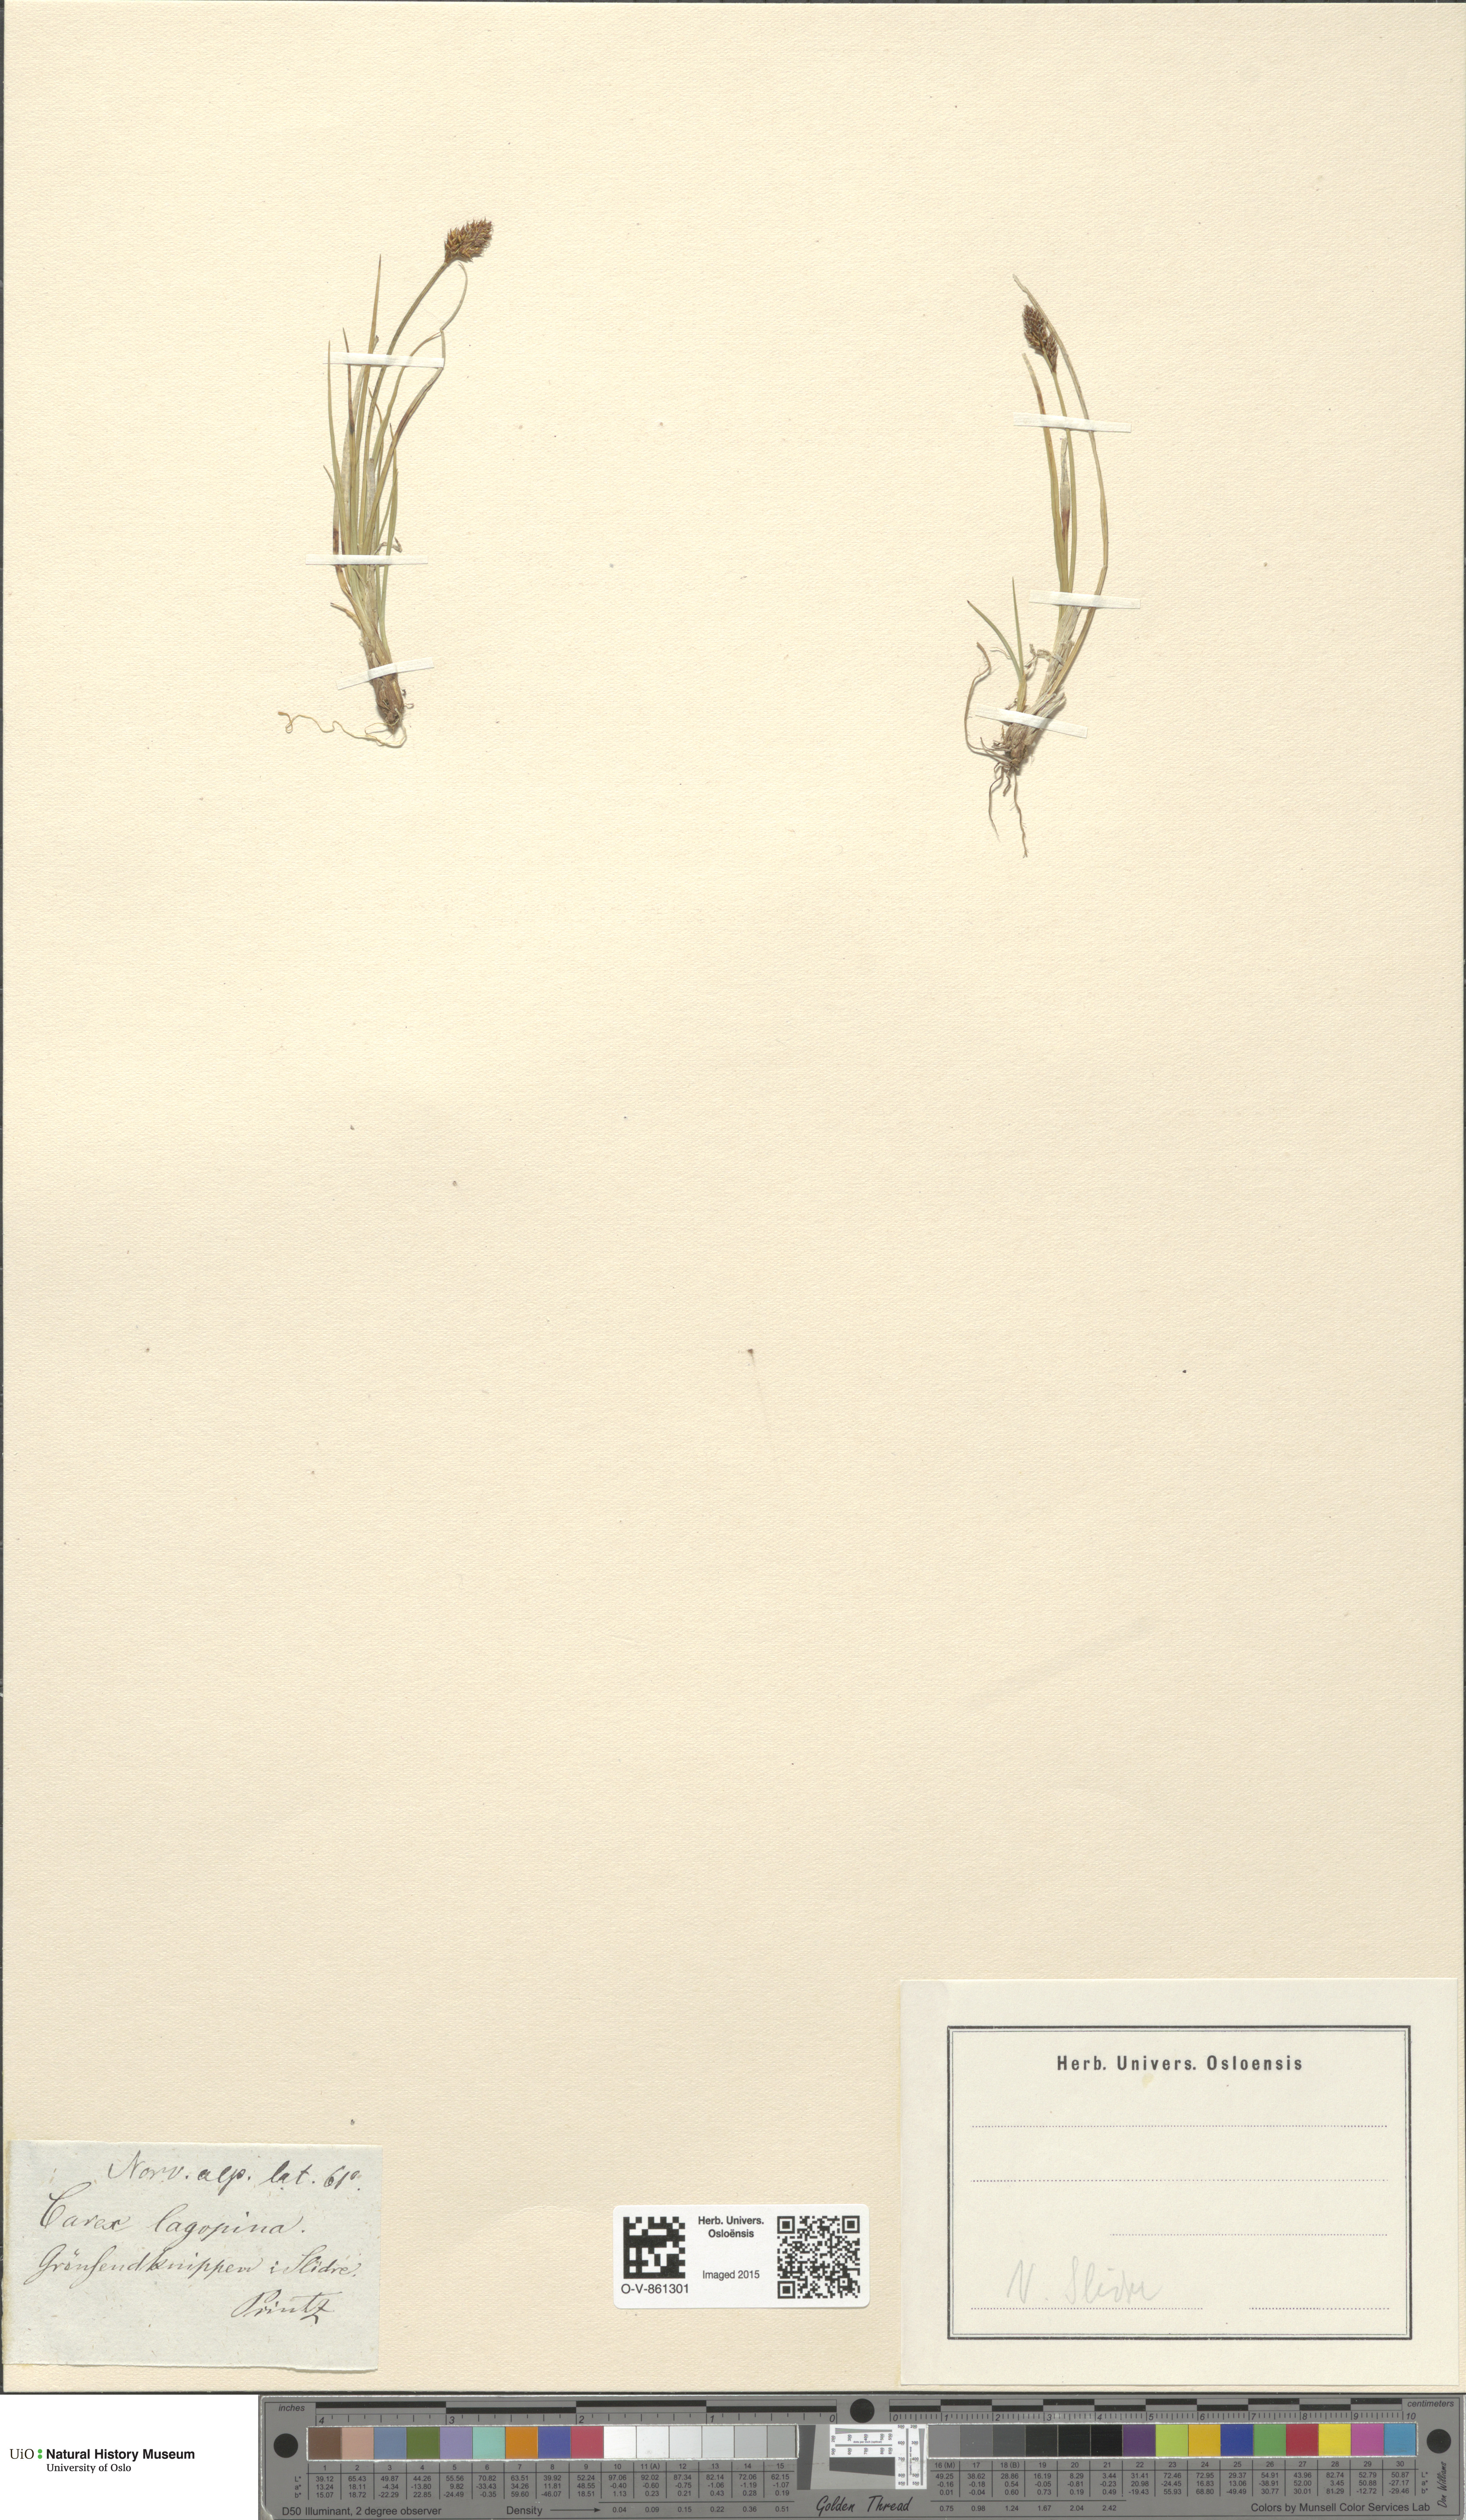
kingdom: Plantae
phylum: Tracheophyta
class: Liliopsida
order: Poales
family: Cyperaceae
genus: Carex
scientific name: Carex lachenalii
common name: Hare's-foot sedge
